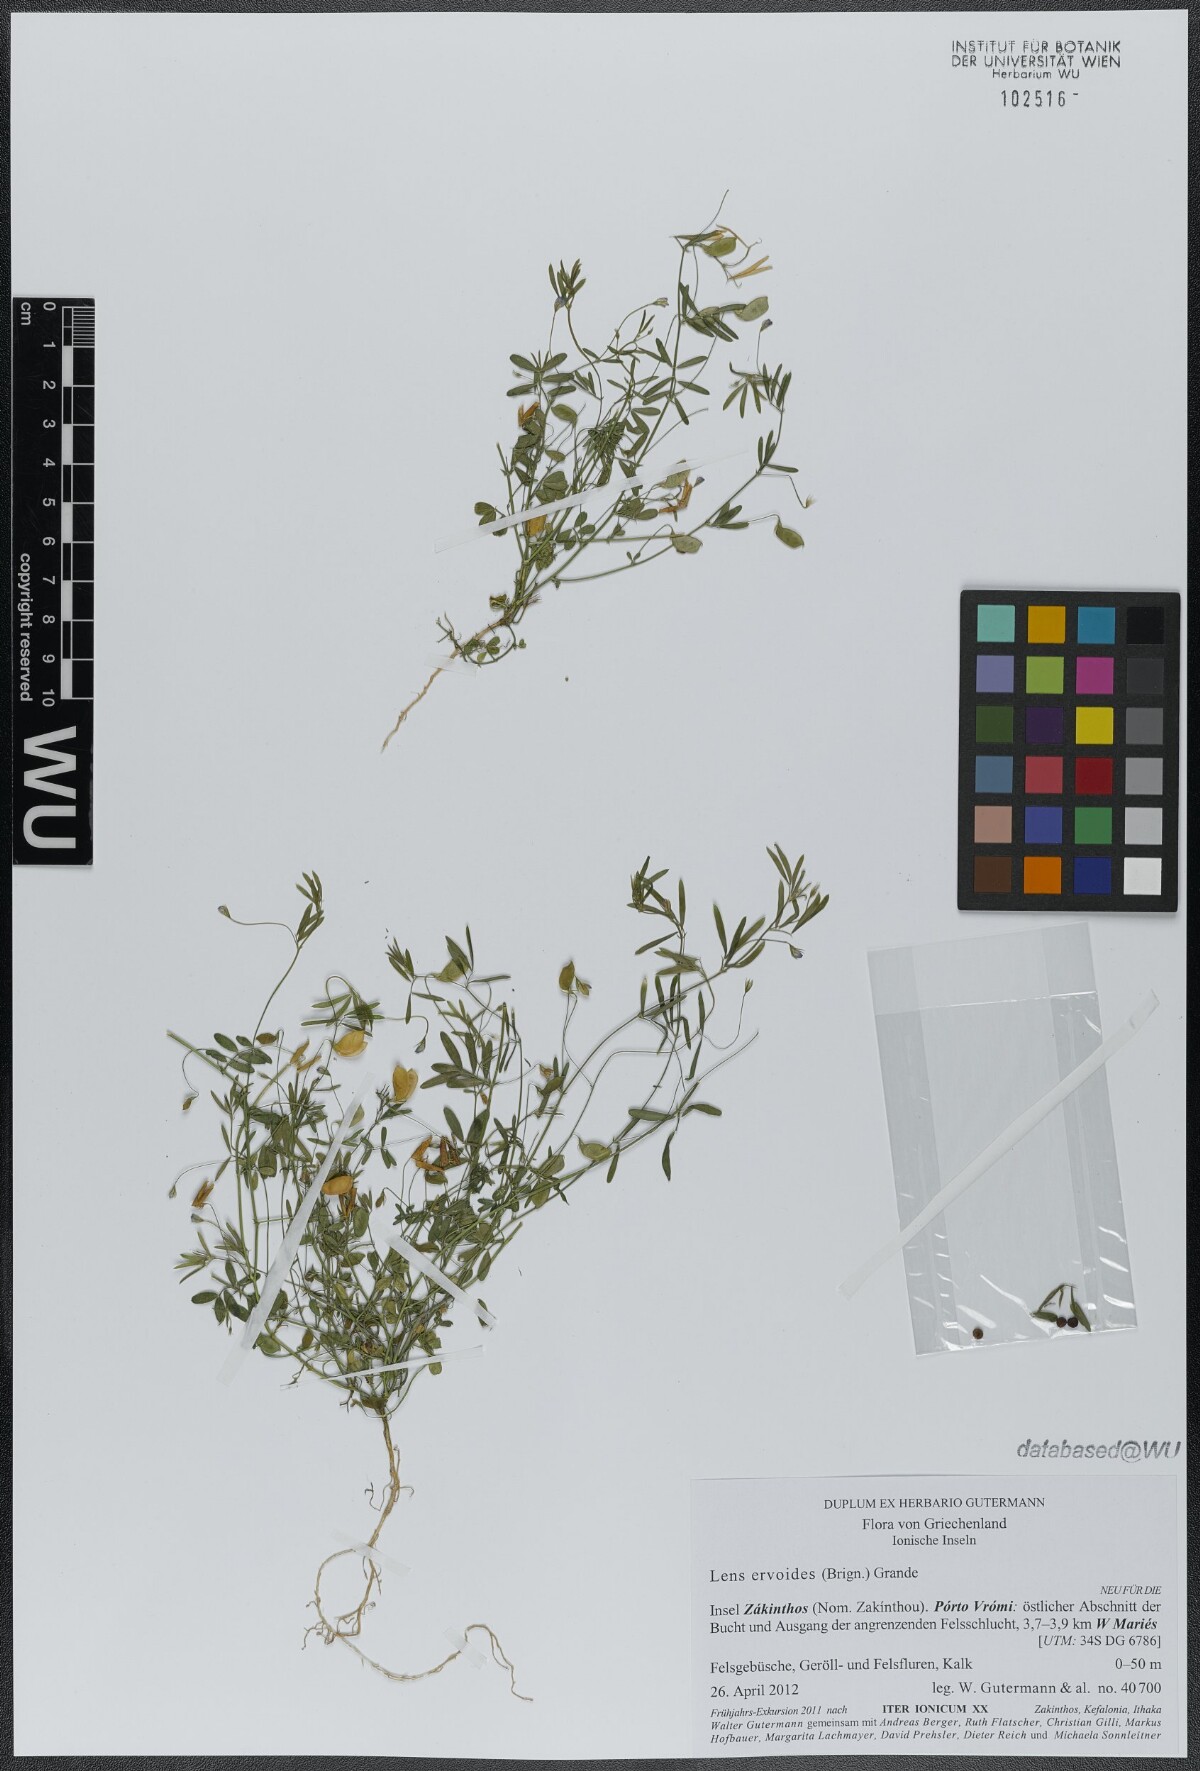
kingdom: Plantae
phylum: Tracheophyta
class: Magnoliopsida
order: Fabales
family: Fabaceae
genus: Vicia
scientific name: Vicia lenticula
